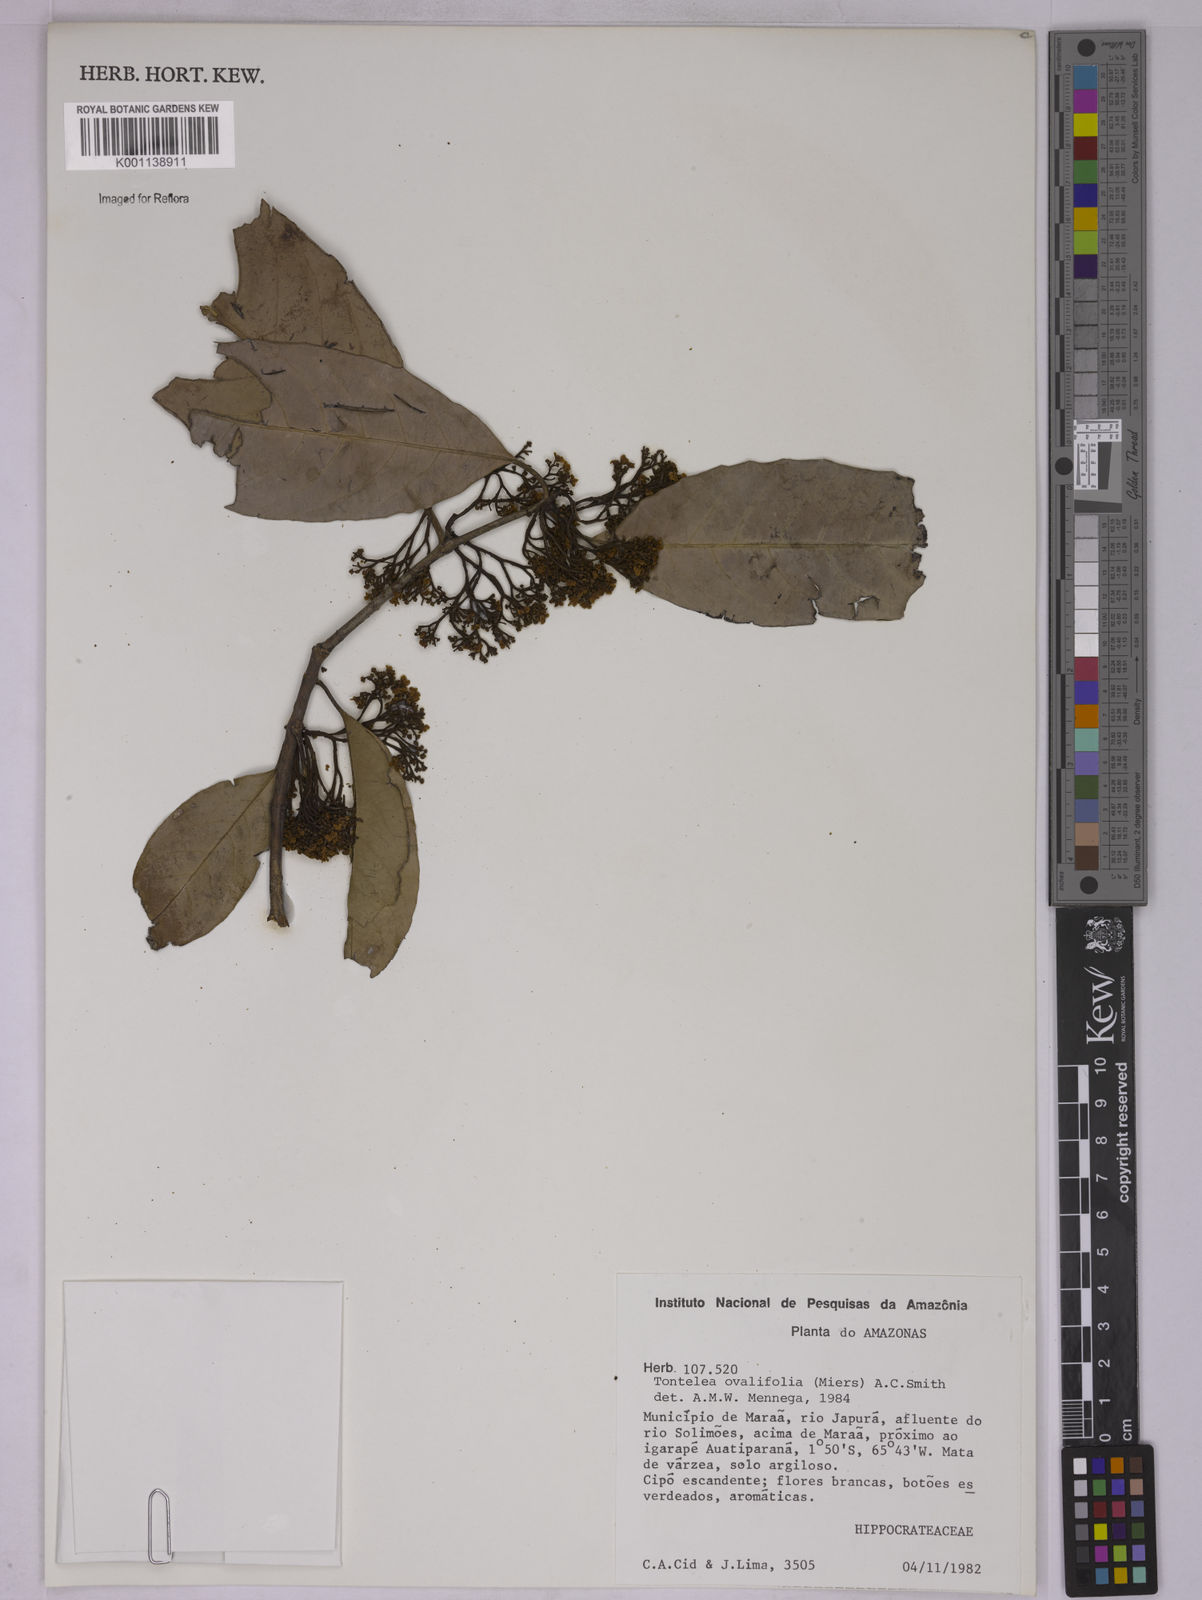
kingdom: Plantae
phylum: Tracheophyta
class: Magnoliopsida
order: Celastrales
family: Celastraceae
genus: Tontelea
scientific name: Tontelea passiflora
